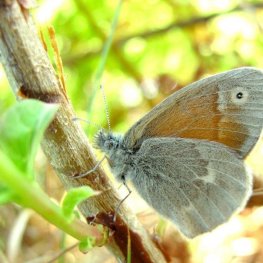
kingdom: Animalia
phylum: Arthropoda
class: Insecta
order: Lepidoptera
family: Nymphalidae
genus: Coenonympha
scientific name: Coenonympha tullia
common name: Large Heath
